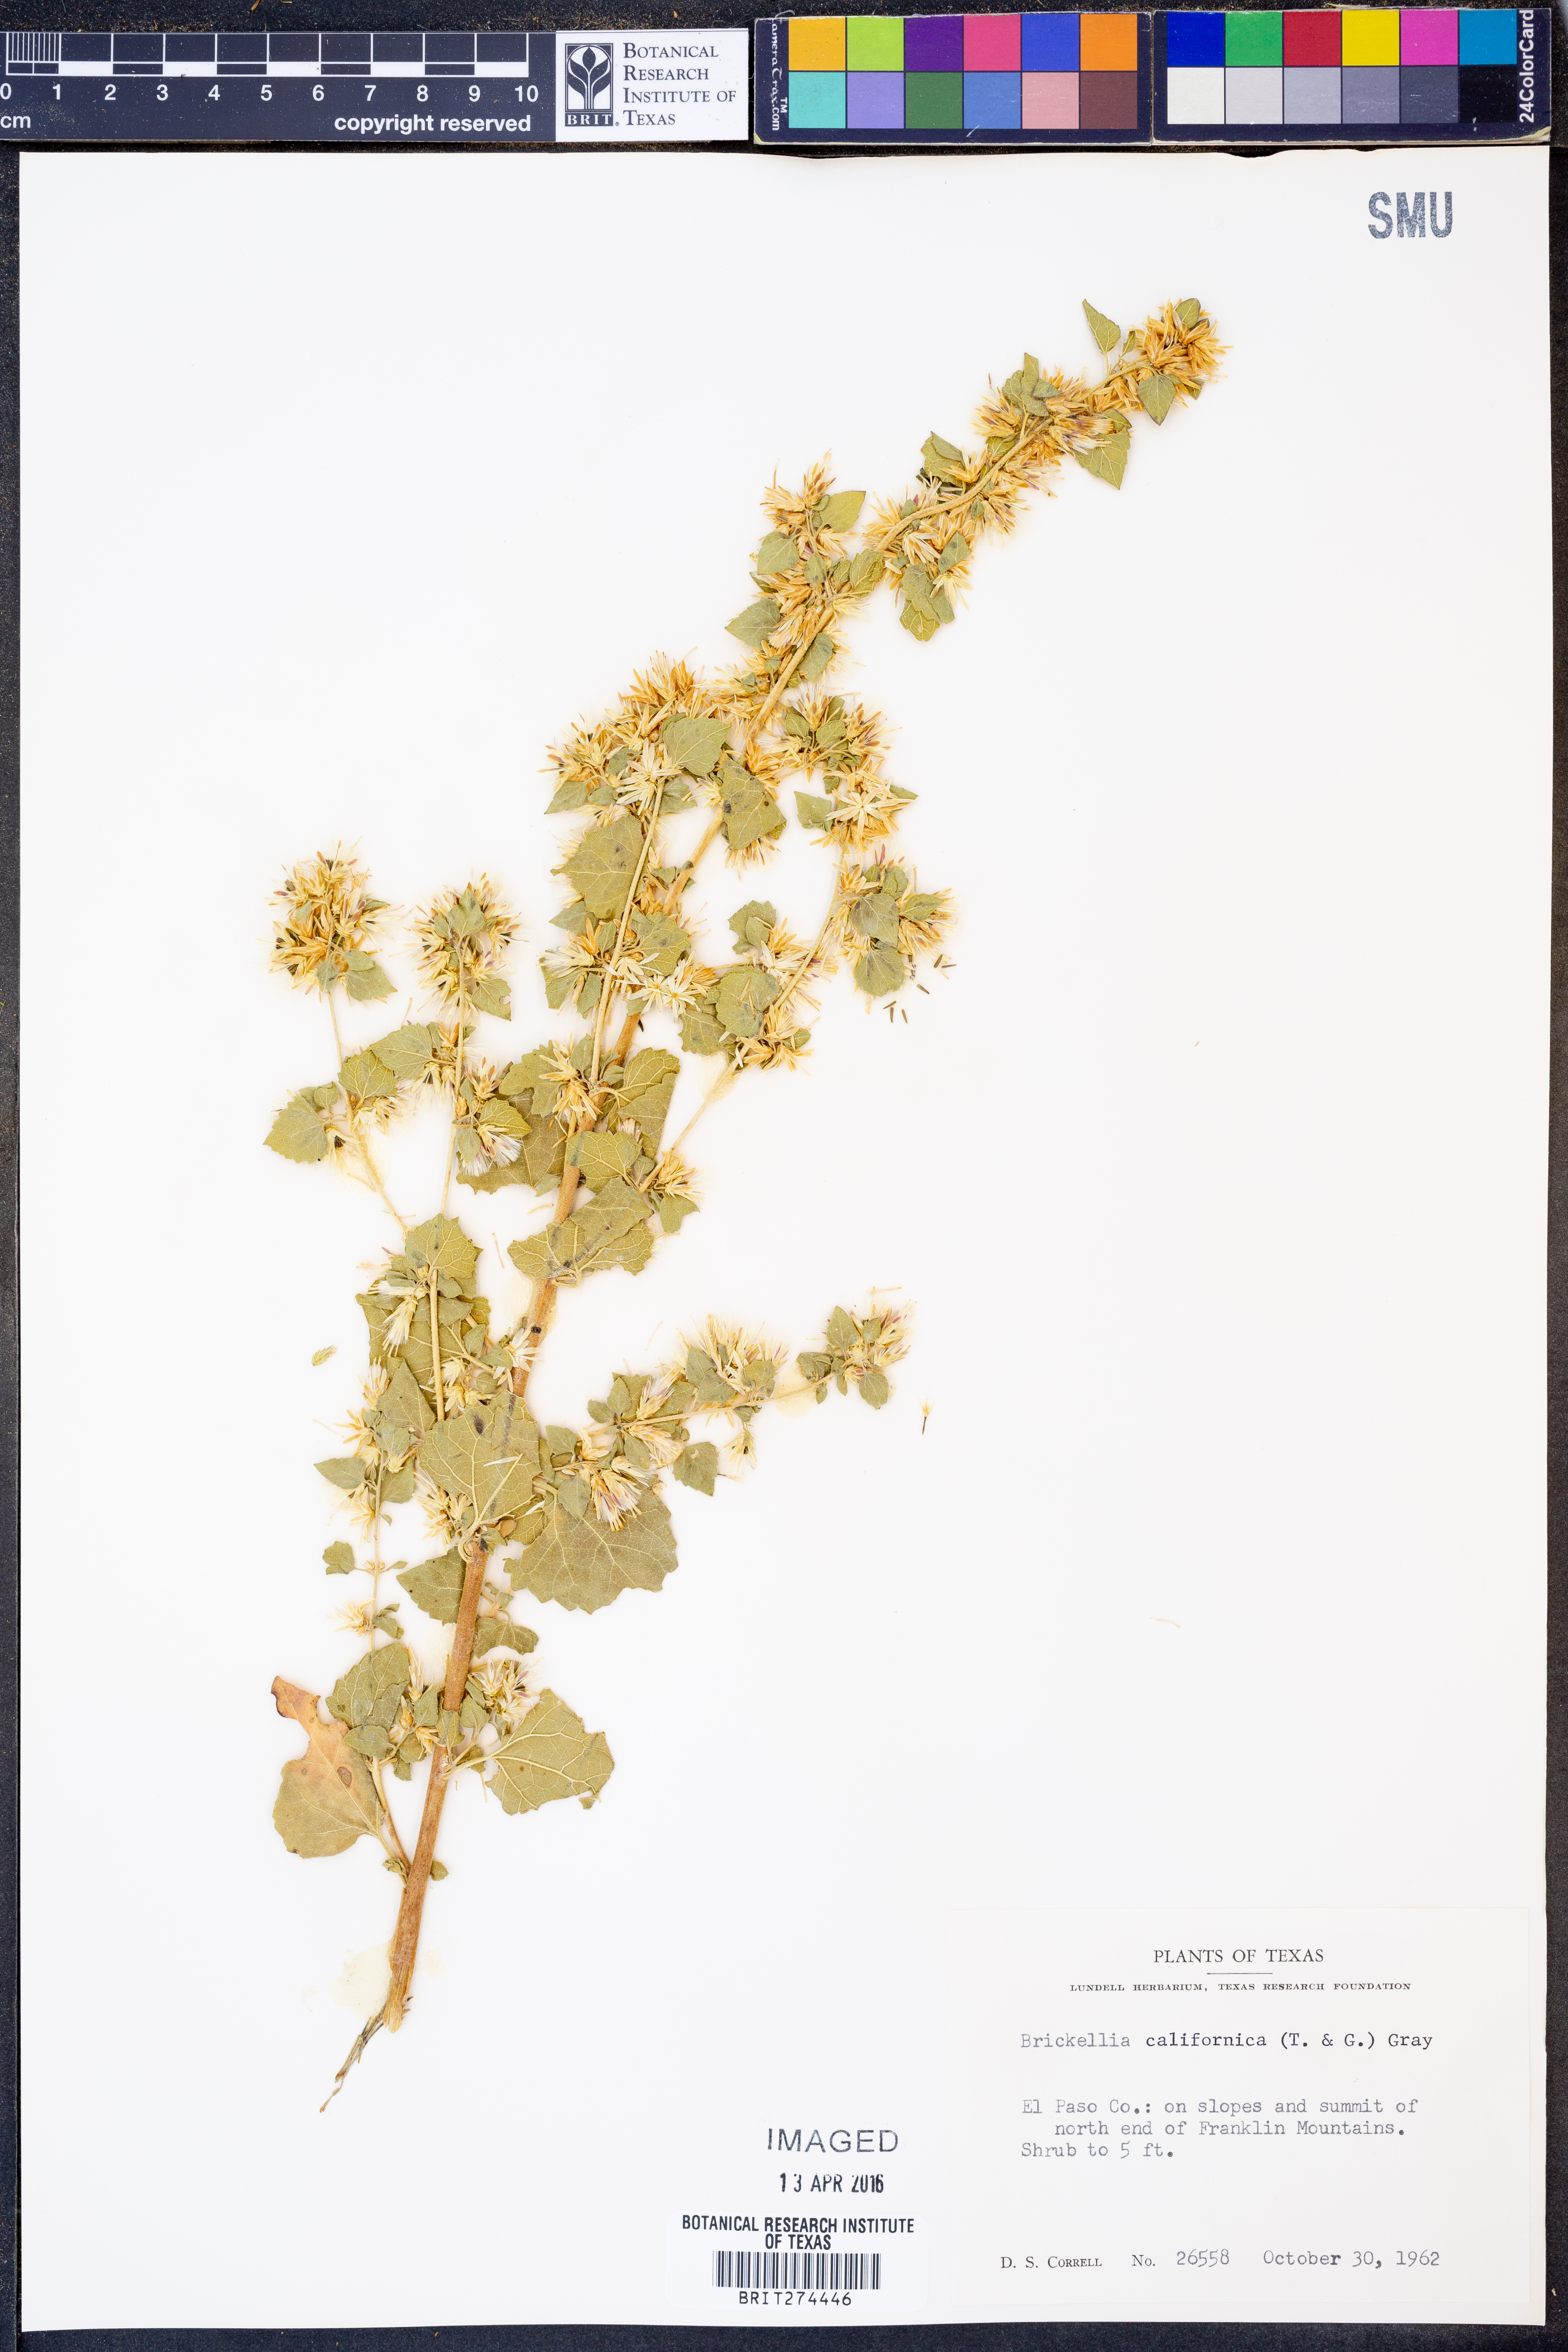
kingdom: Plantae
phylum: Tracheophyta
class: Magnoliopsida
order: Asterales
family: Asteraceae
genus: Brickellia
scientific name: Brickellia californica
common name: California brickellbush
